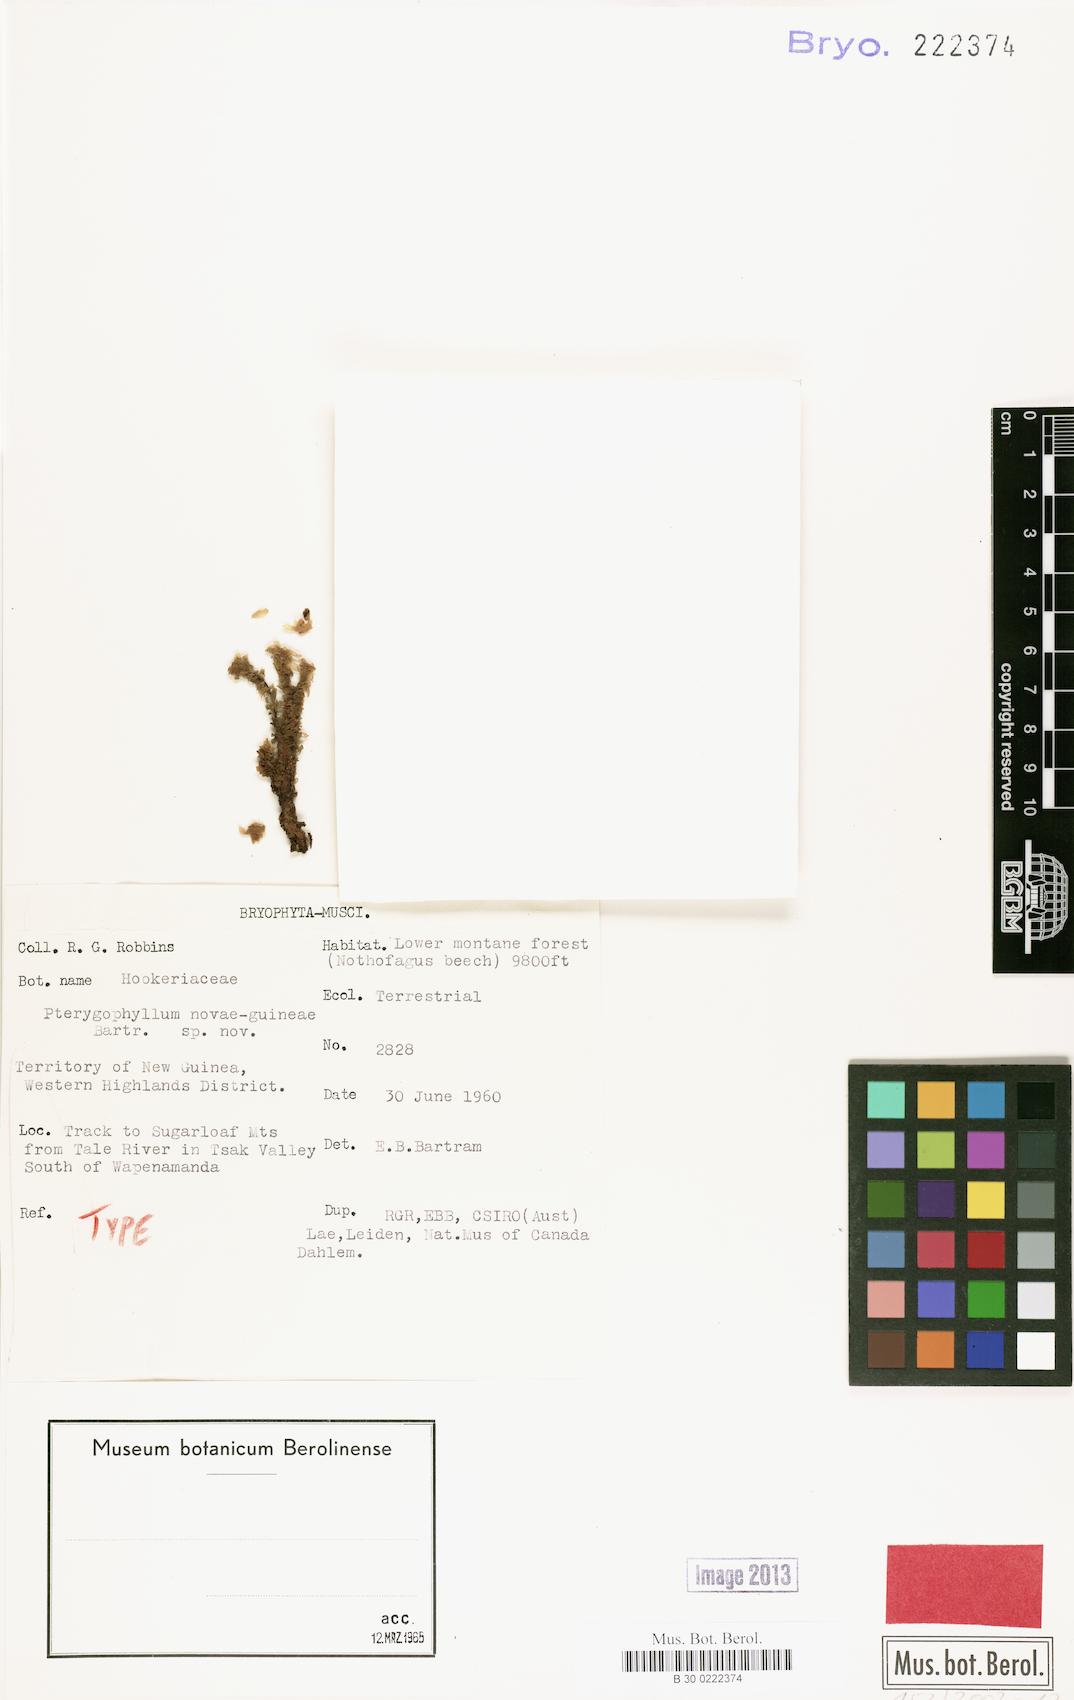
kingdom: Plantae
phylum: Bryophyta
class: Bryopsida
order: Hookeriales
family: Daltoniaceae
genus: Achrophyllum
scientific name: Achrophyllum dentatum
